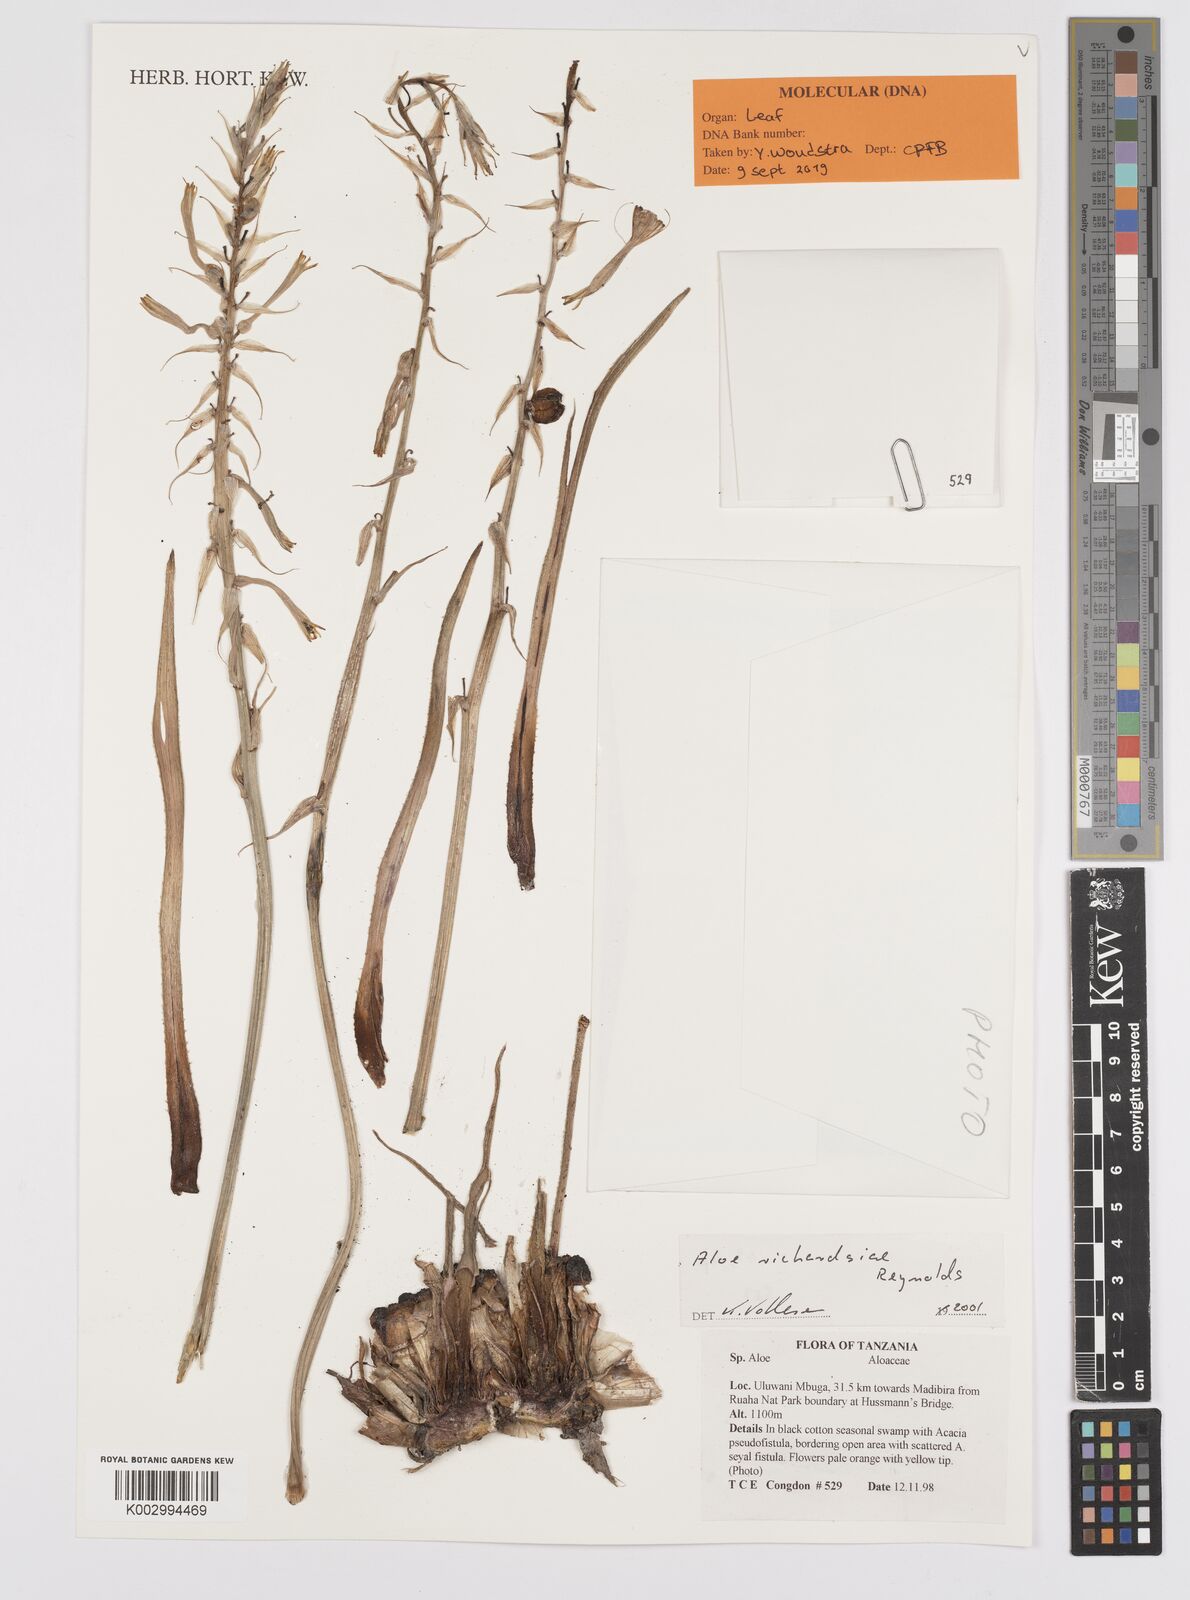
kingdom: Plantae
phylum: Tracheophyta
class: Liliopsida
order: Asparagales
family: Asphodelaceae
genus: Aloe
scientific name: Aloe richardsiae
